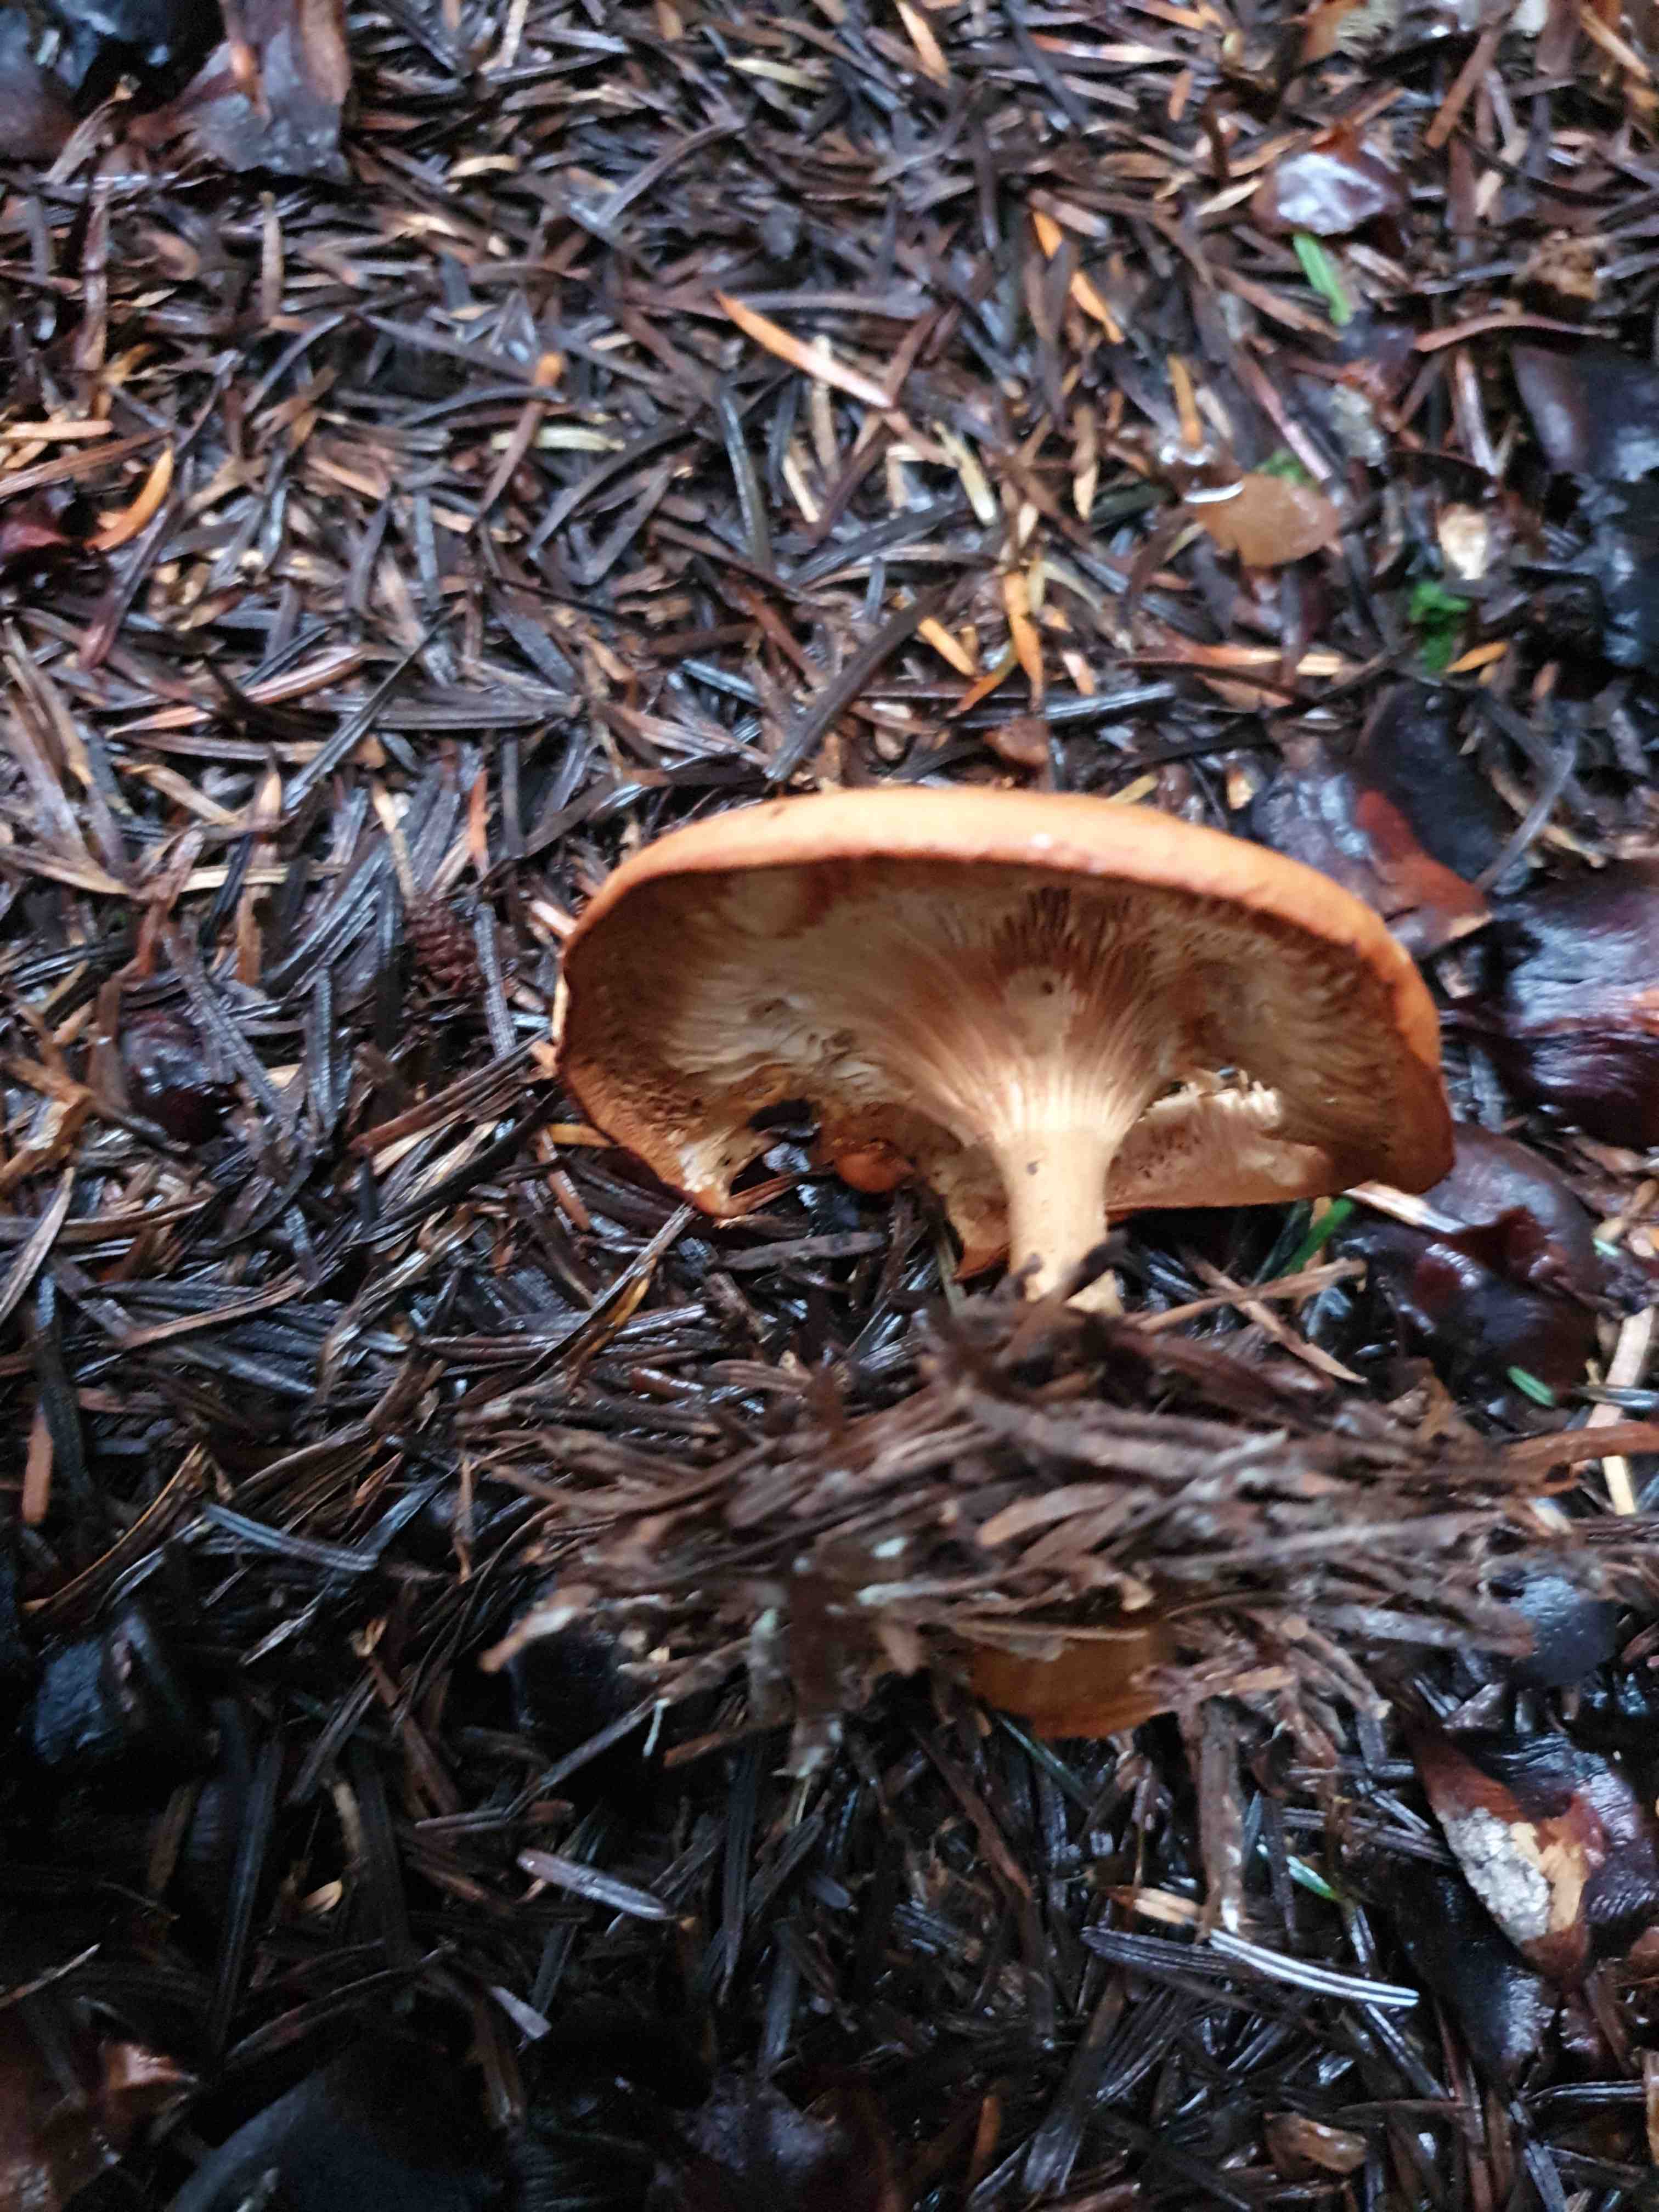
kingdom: Fungi
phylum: Basidiomycota
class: Agaricomycetes
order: Agaricales
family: Tricholomataceae
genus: Paralepista
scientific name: Paralepista flaccida
